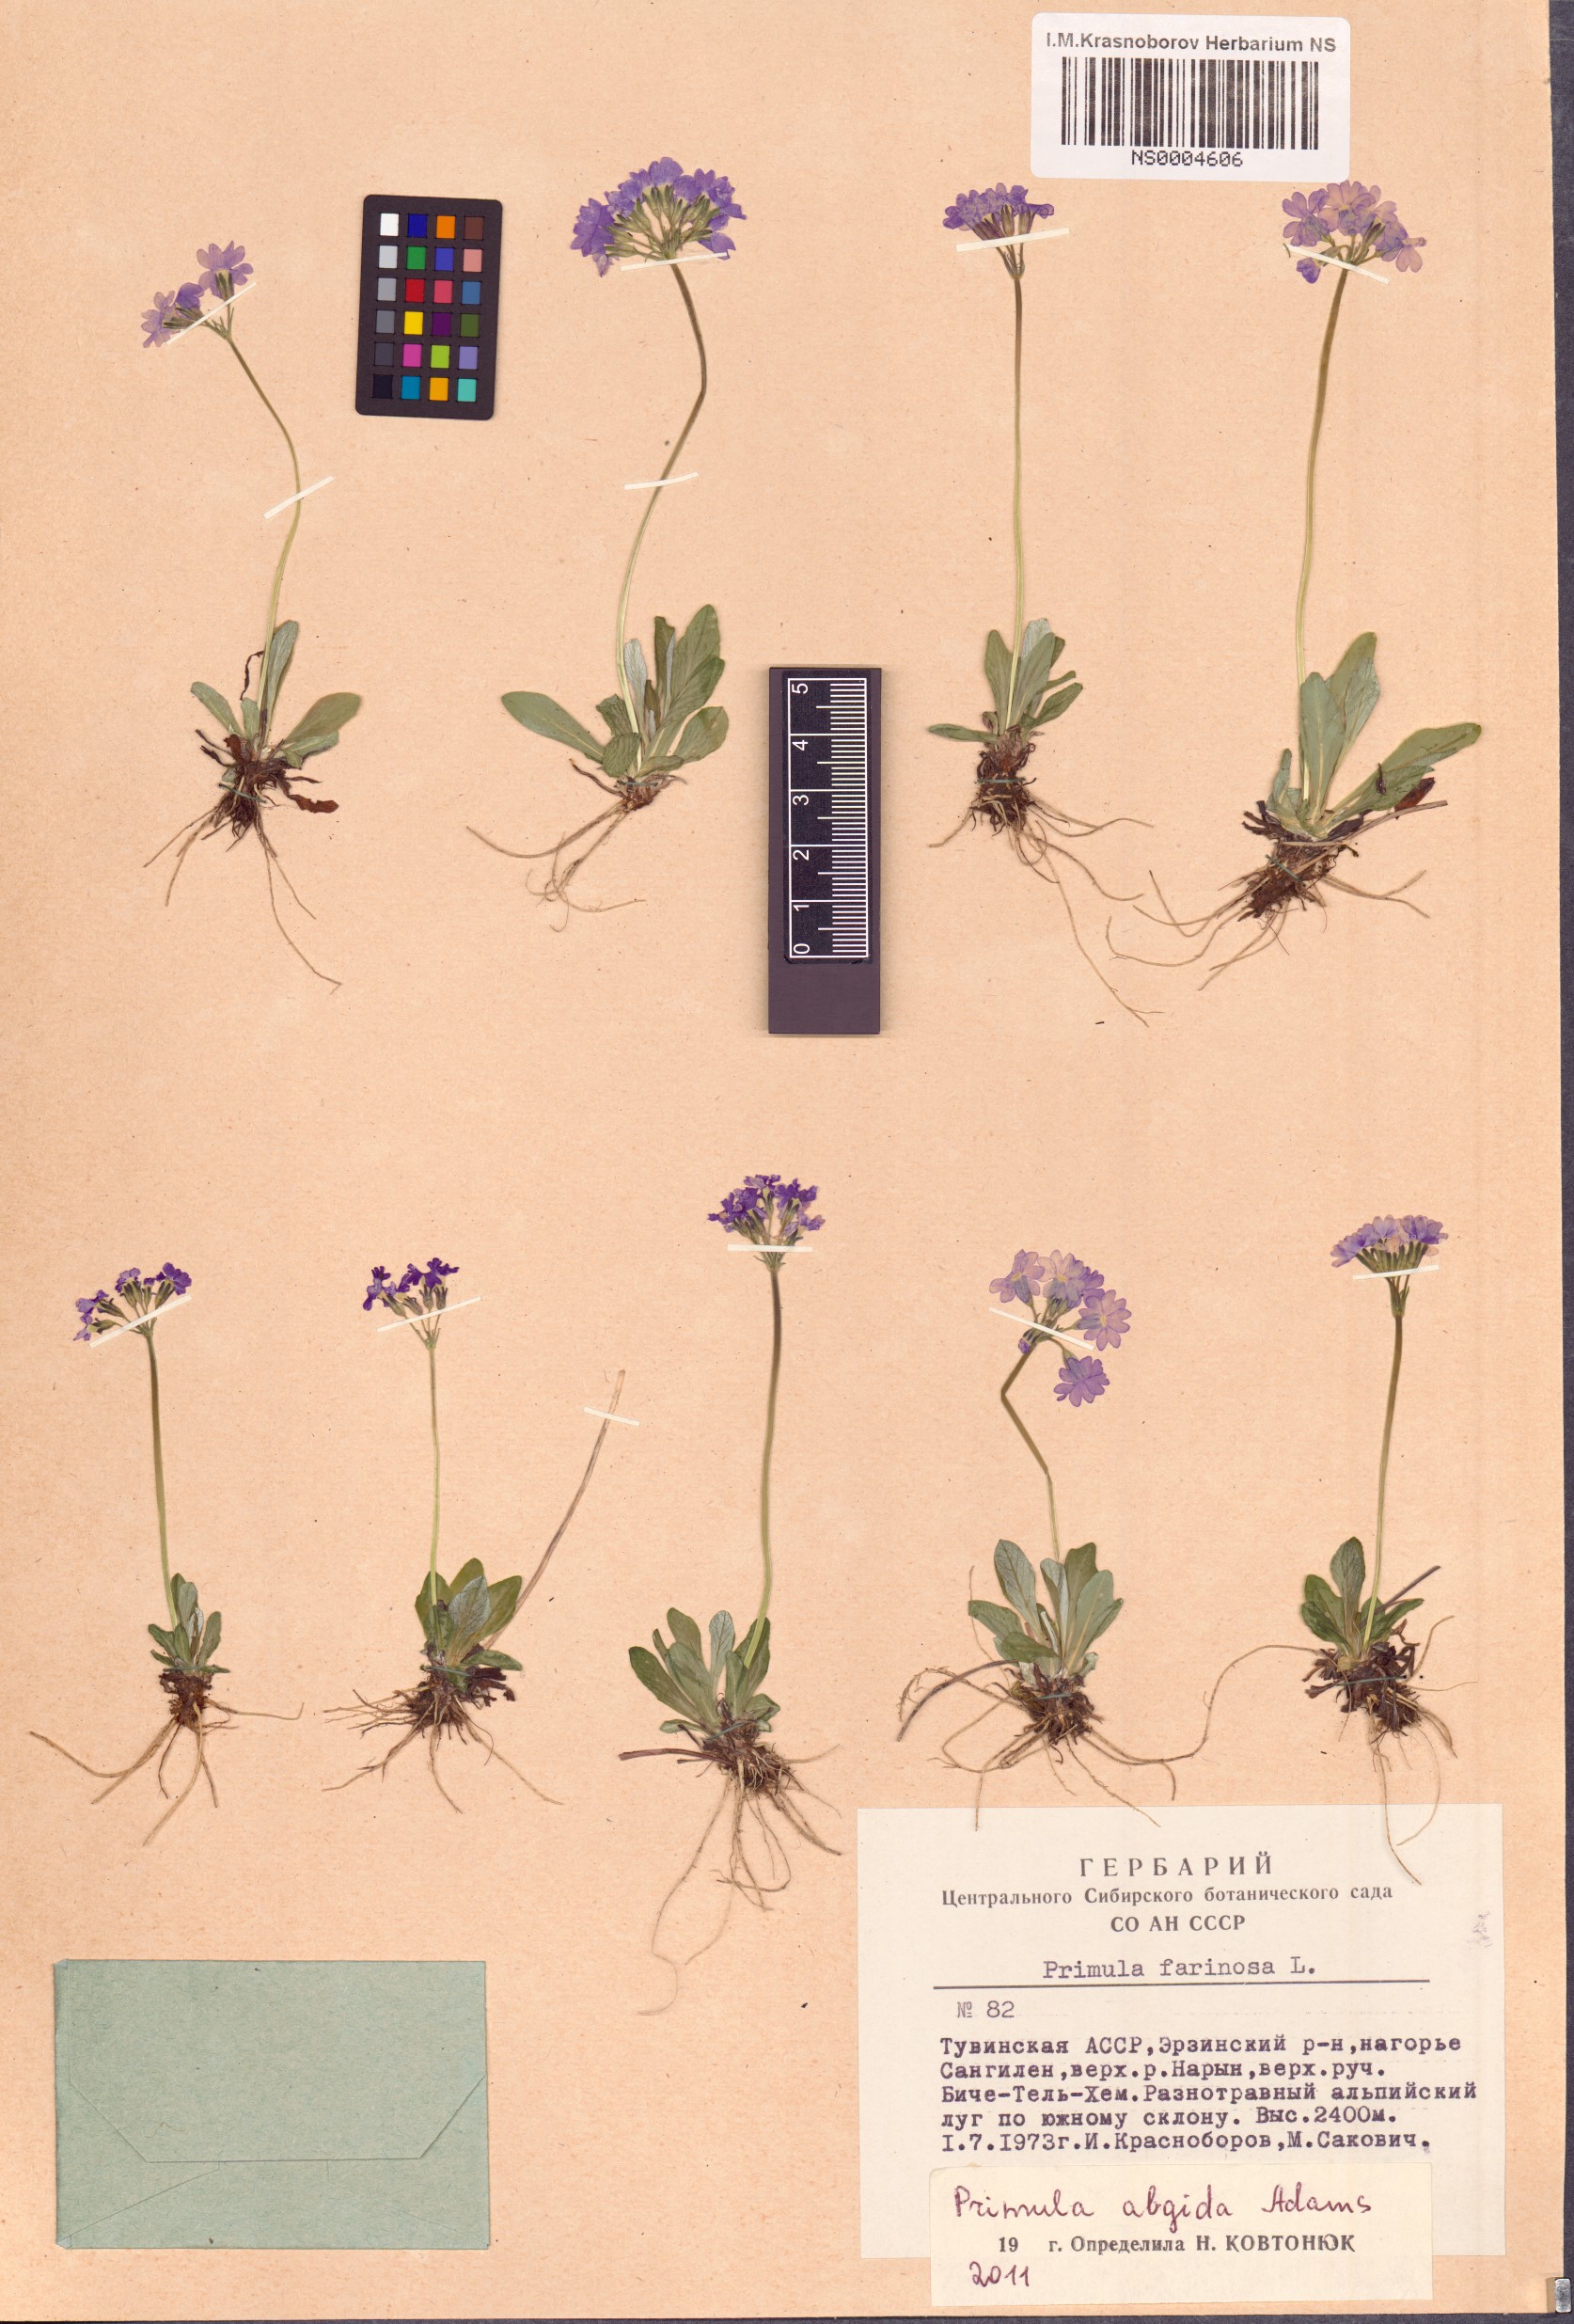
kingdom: Plantae
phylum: Tracheophyta
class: Magnoliopsida
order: Ericales
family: Primulaceae
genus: Primula
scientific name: Primula algida
